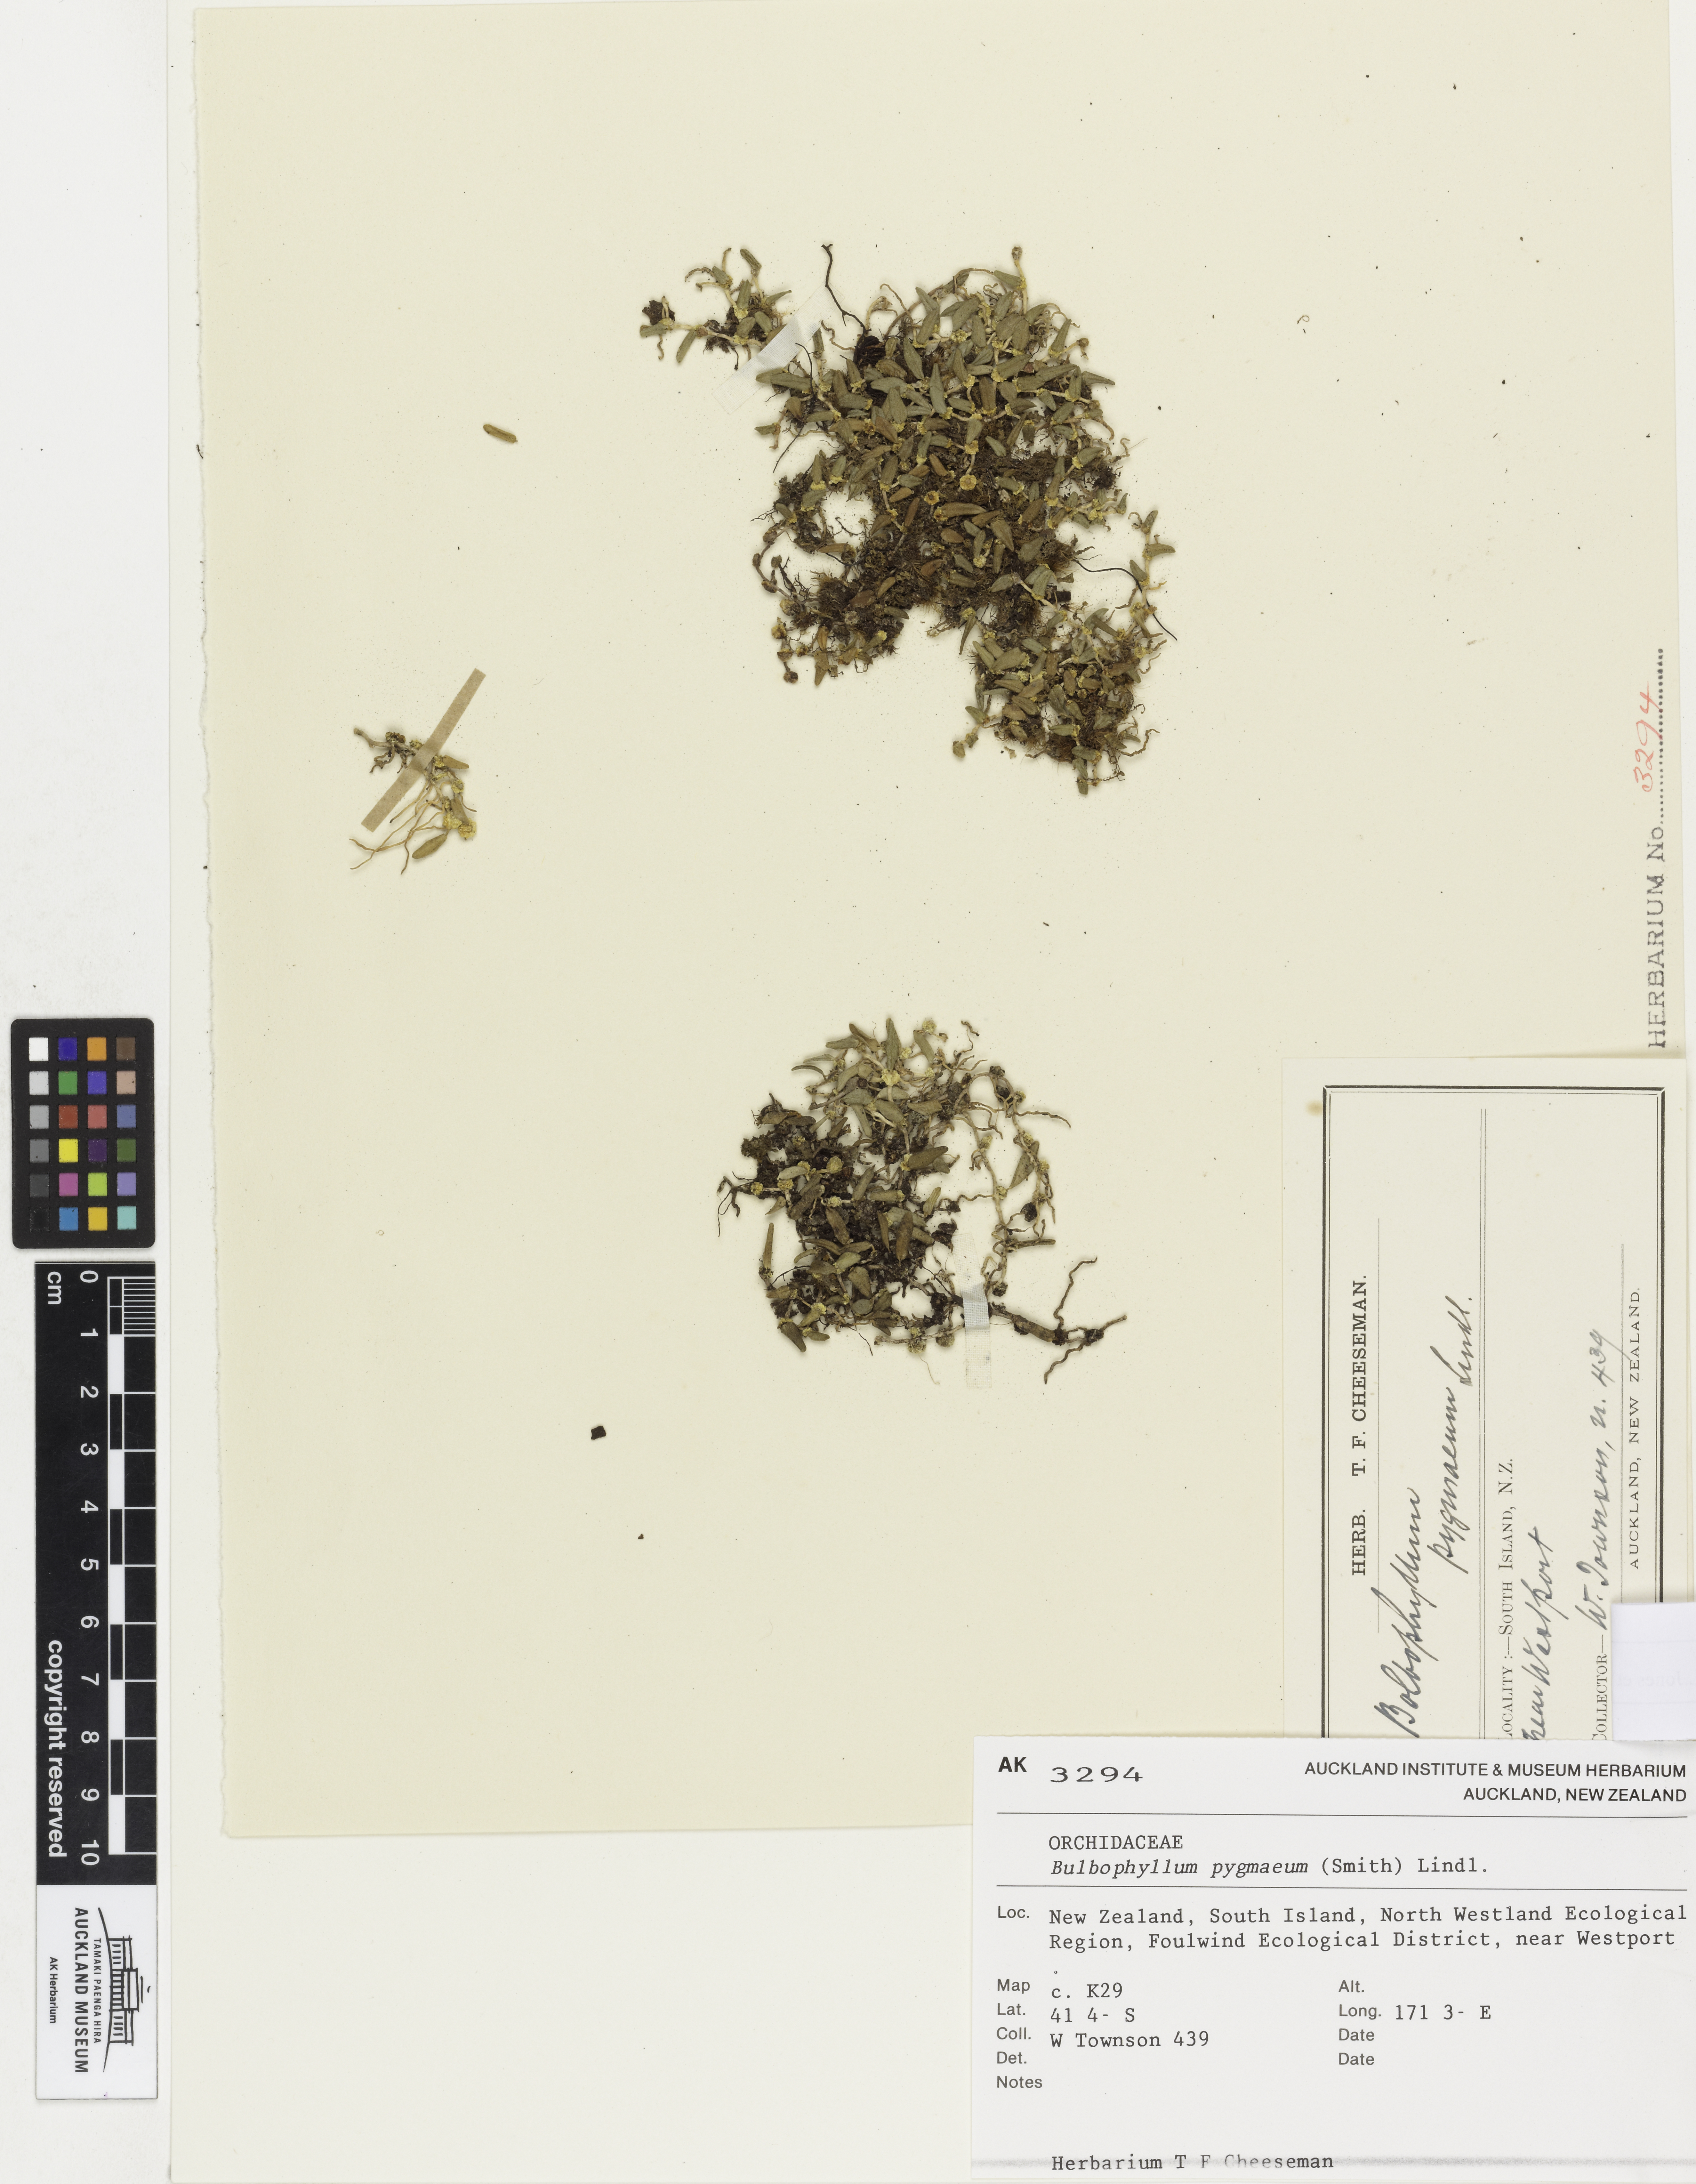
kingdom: Plantae
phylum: Tracheophyta
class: Liliopsida
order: Asparagales
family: Orchidaceae
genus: Bulbophyllum
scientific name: Bulbophyllum pygmaeum
